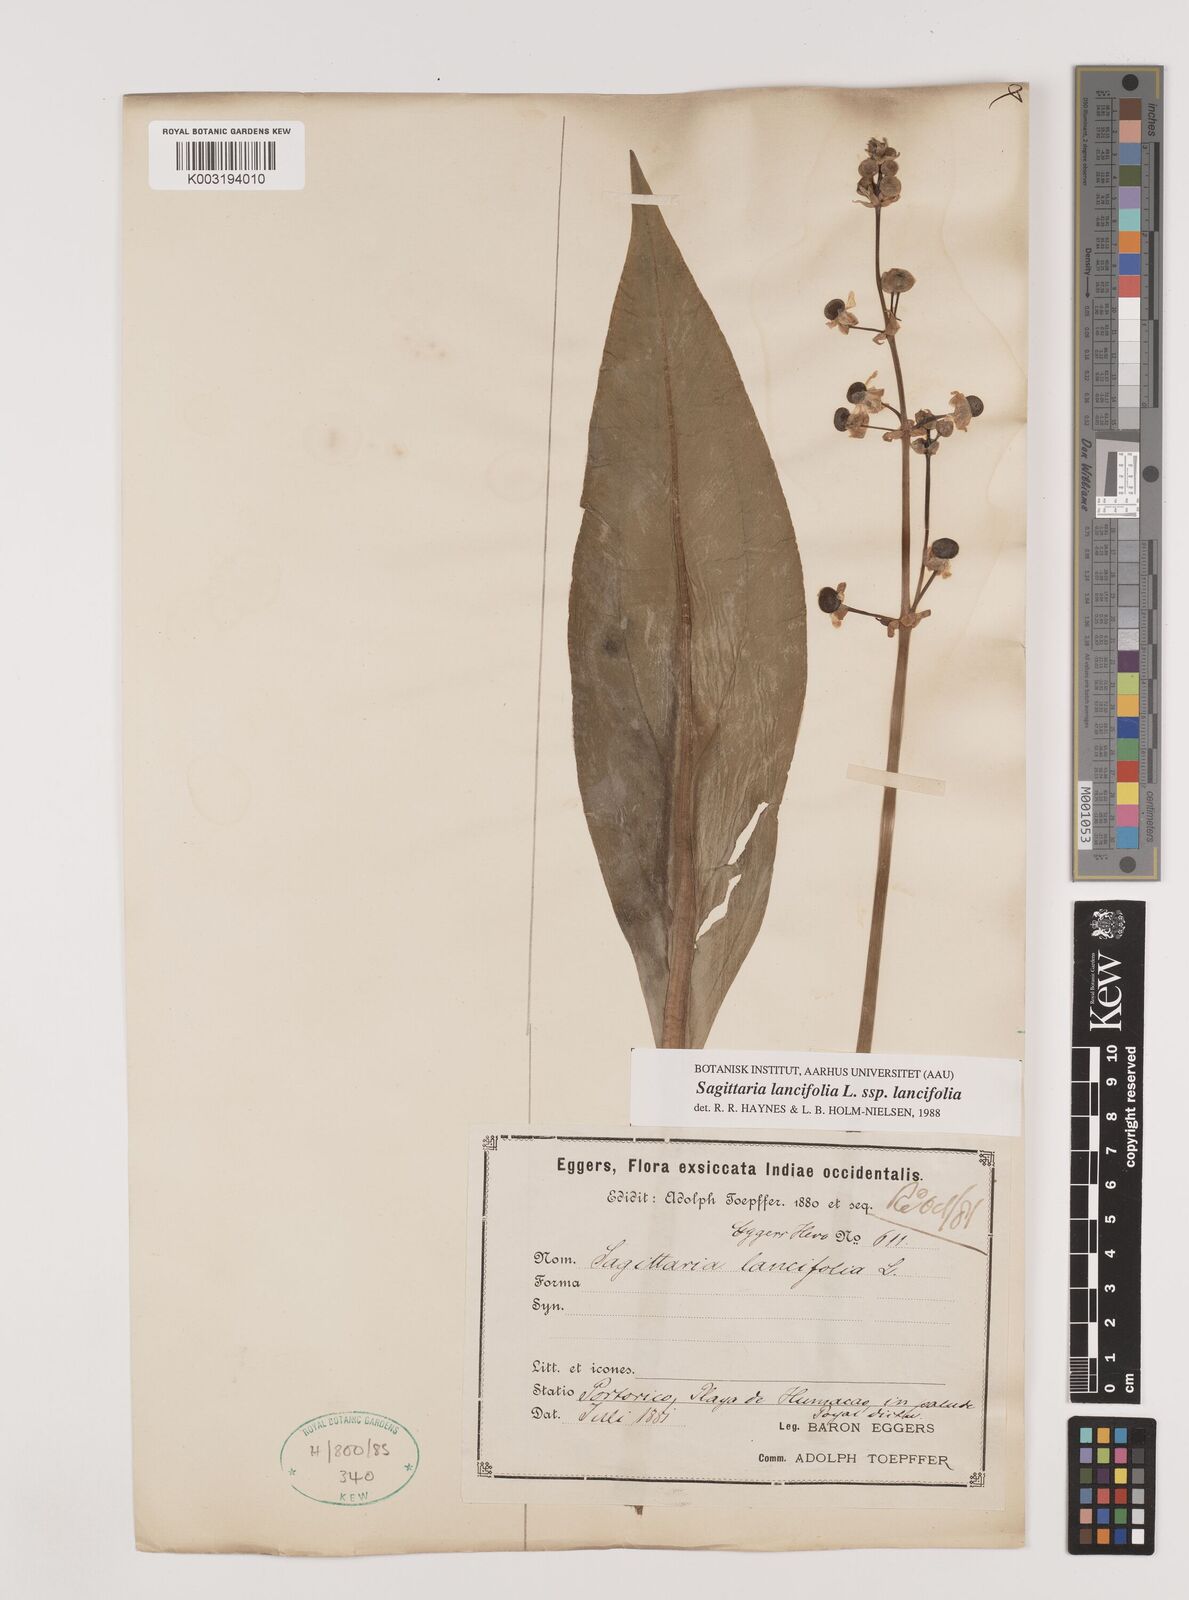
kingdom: Plantae
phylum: Tracheophyta
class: Liliopsida
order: Alismatales
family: Alismataceae
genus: Sagittaria
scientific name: Sagittaria lancifolia
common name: Lance-leaf arrowhead
